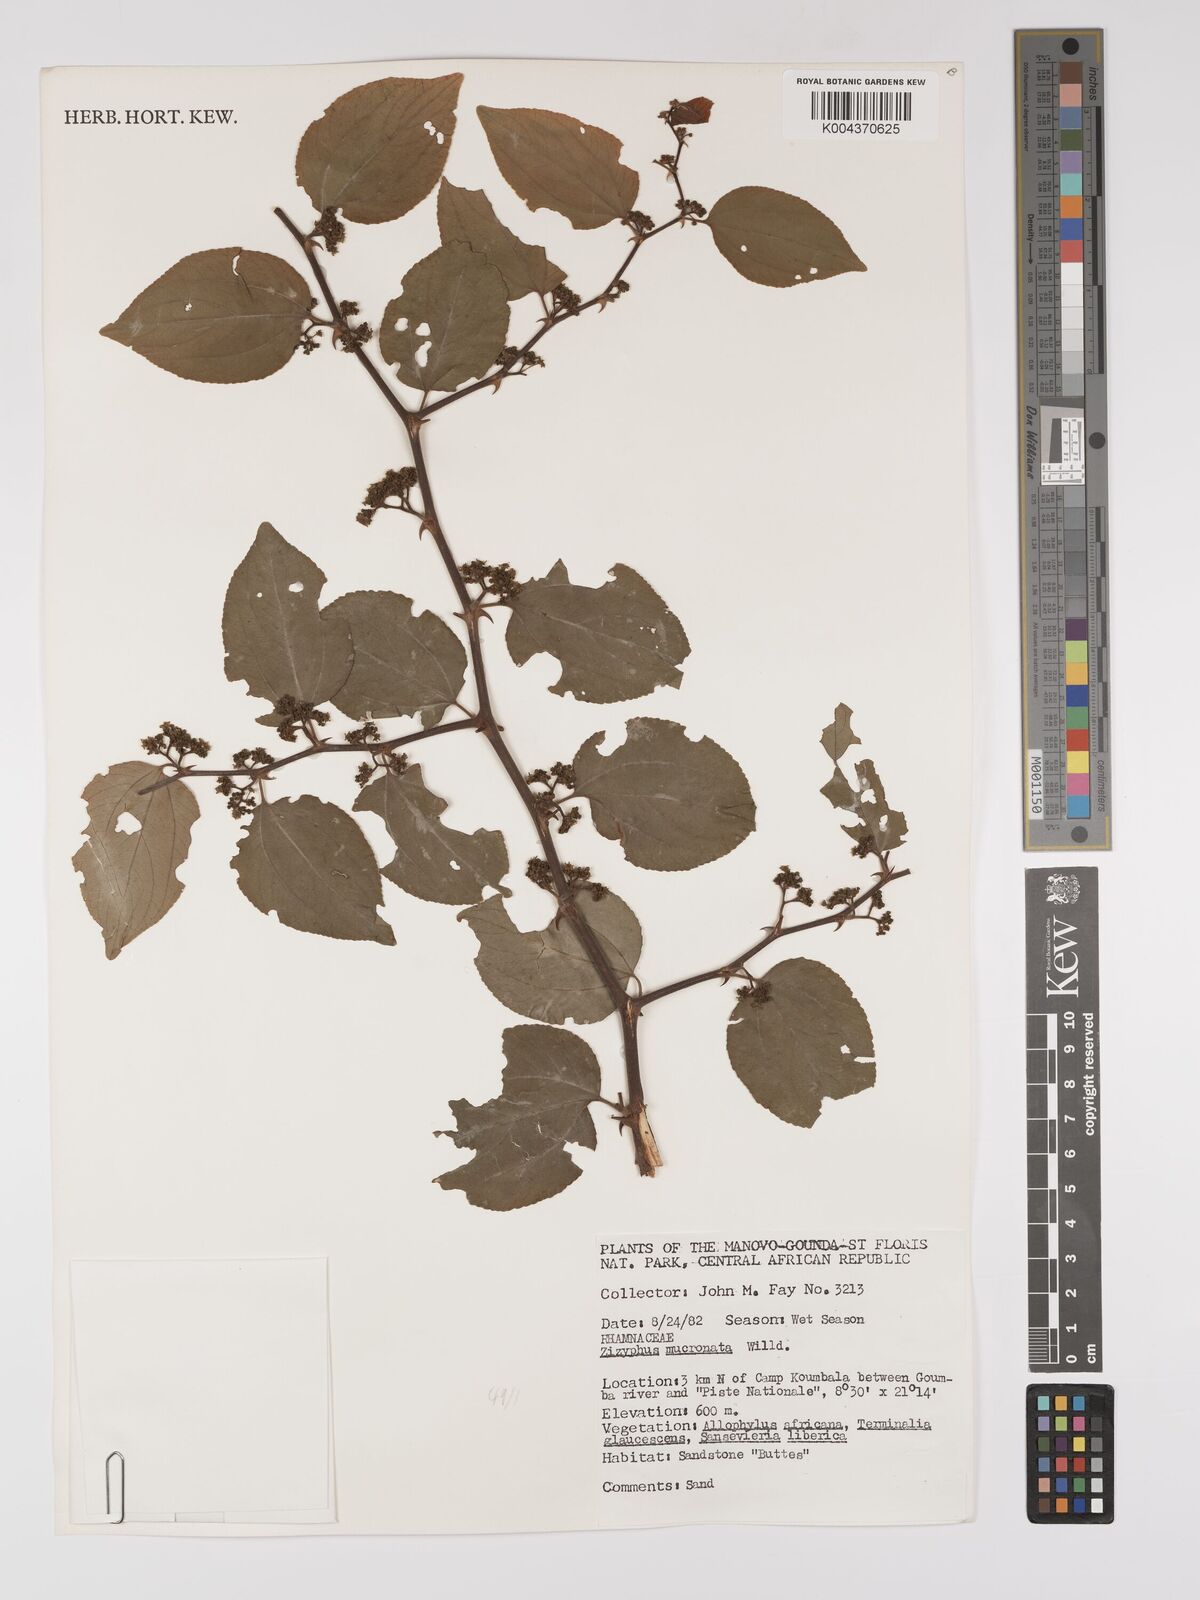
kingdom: Plantae
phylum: Tracheophyta
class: Magnoliopsida
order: Rosales
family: Rhamnaceae
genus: Ziziphus
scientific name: Ziziphus mucronata
